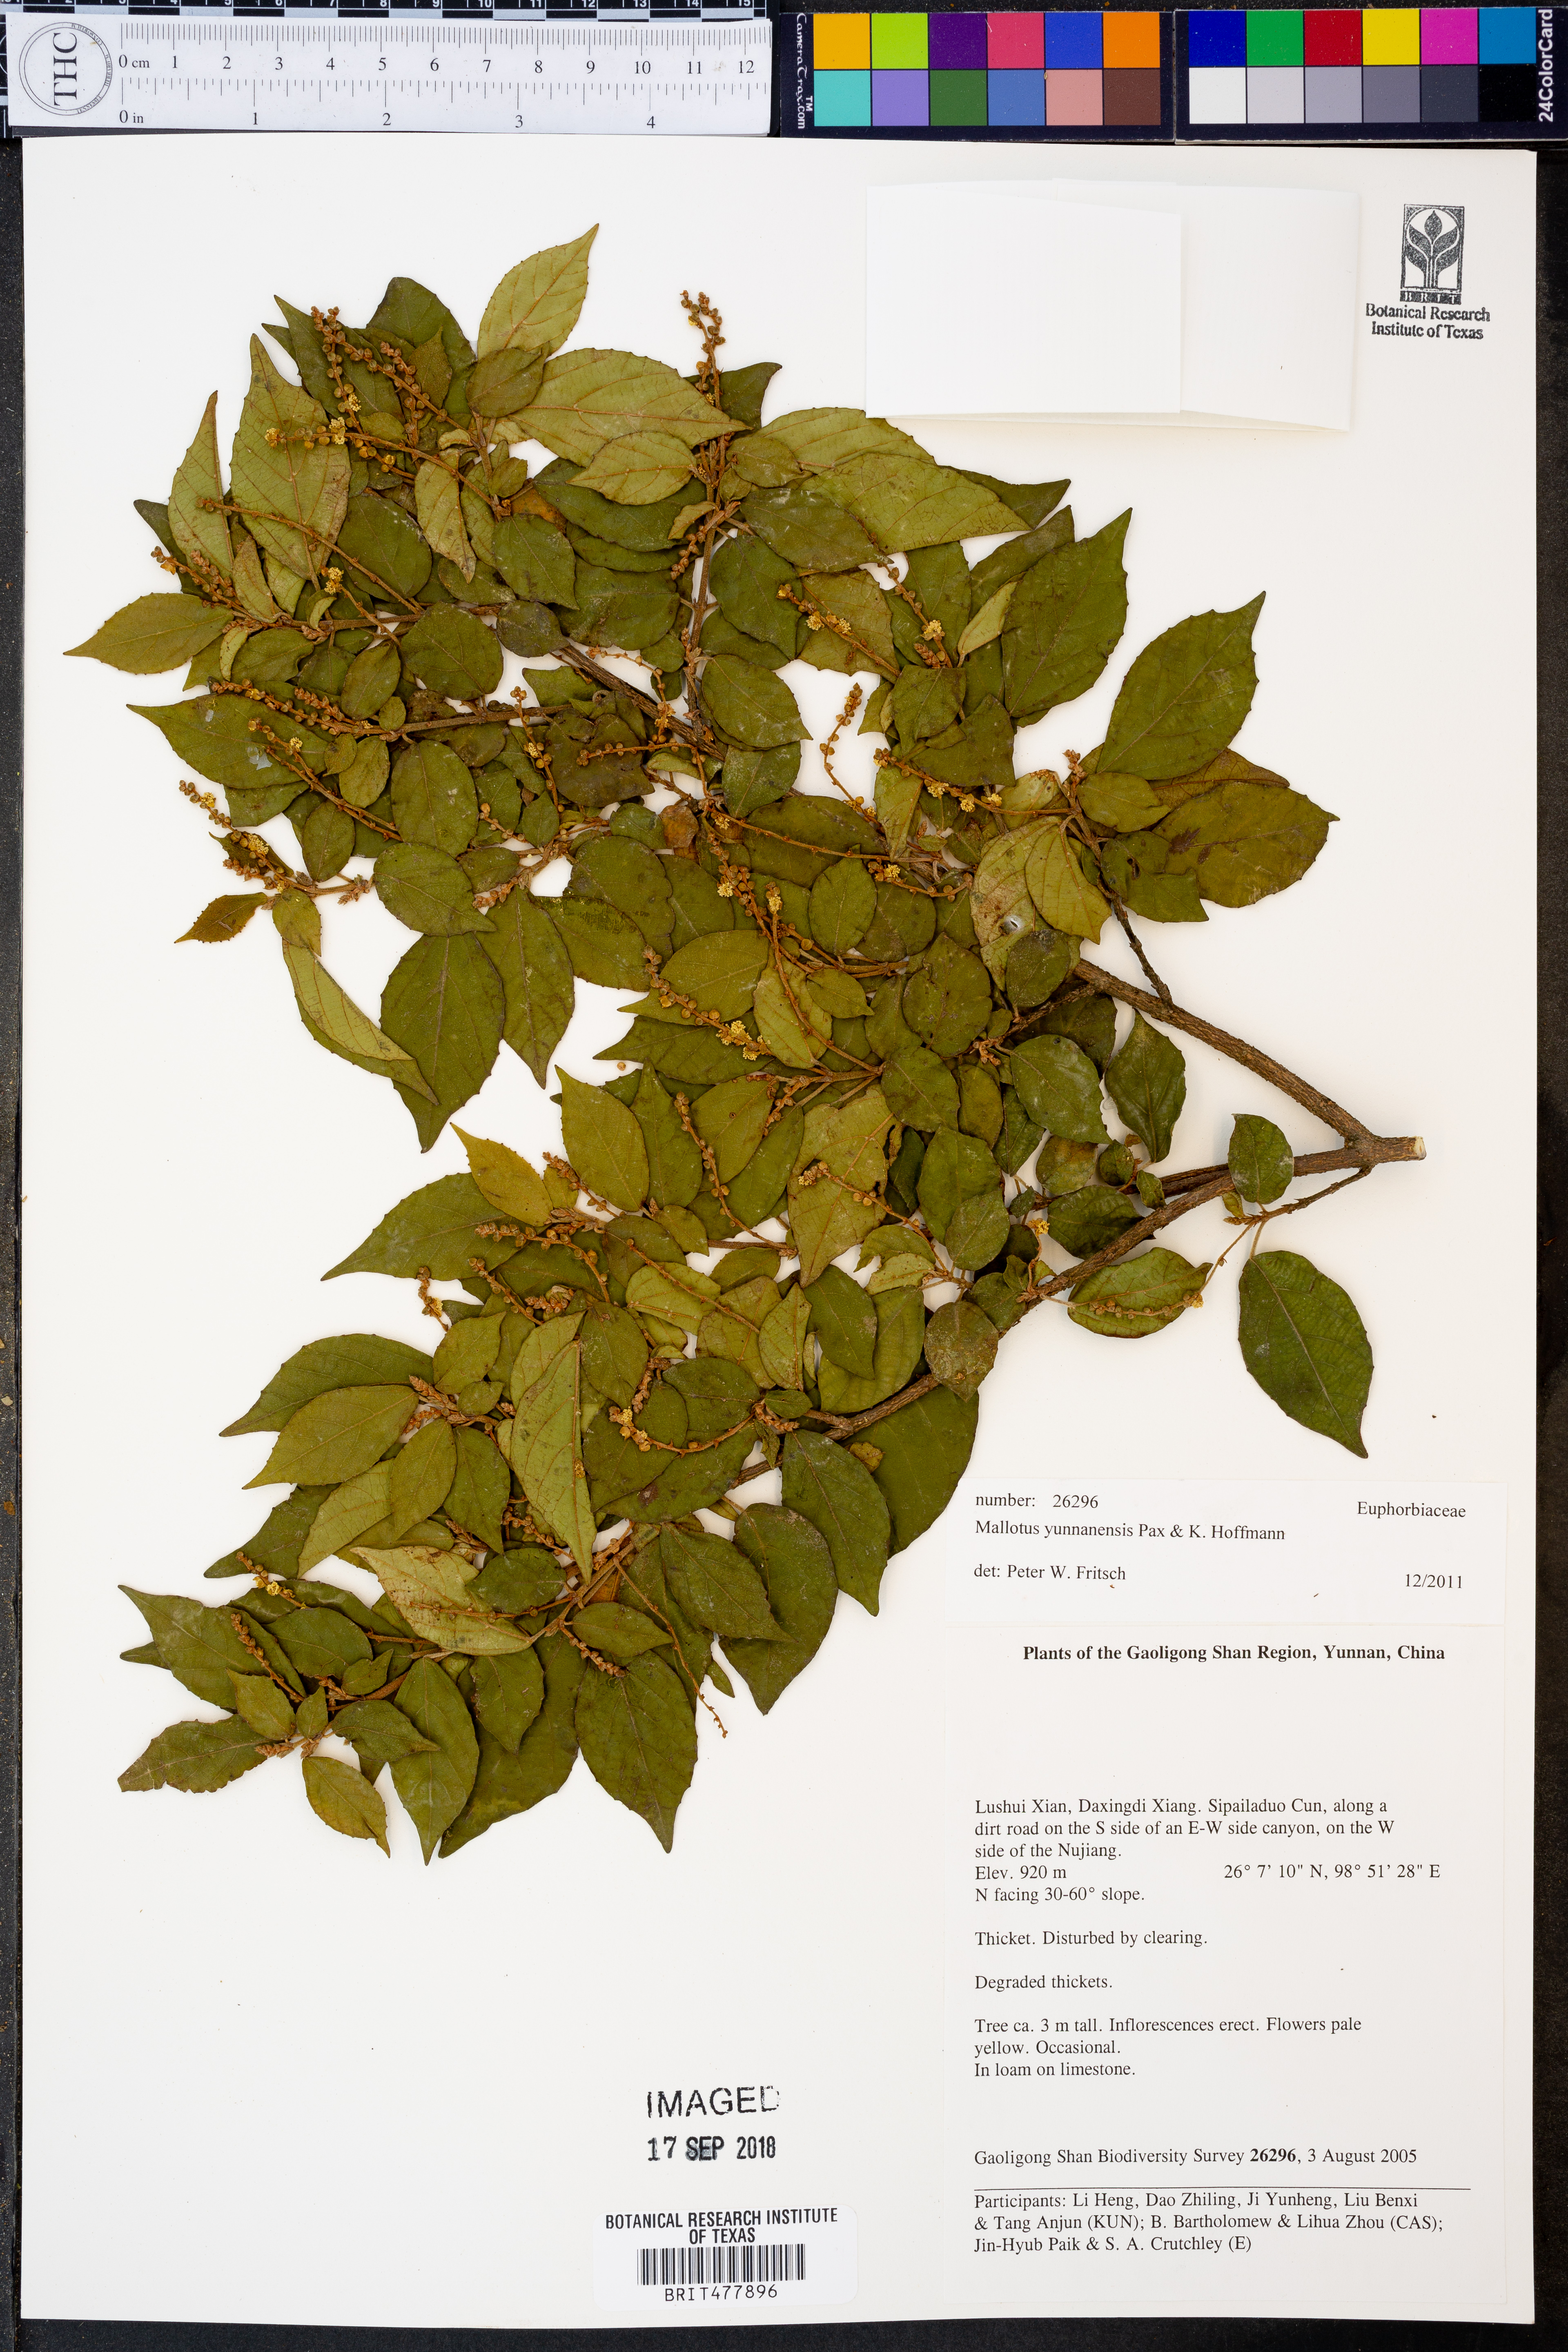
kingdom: Plantae
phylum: Tracheophyta
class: Magnoliopsida
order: Malpighiales
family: Euphorbiaceae
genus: Mallotus
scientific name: Mallotus yunnanensis
